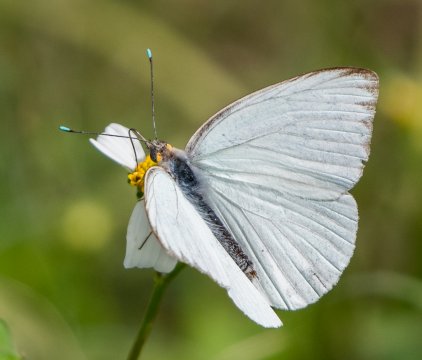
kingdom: Animalia
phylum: Arthropoda
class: Insecta
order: Lepidoptera
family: Pieridae
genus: Ascia
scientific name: Ascia monuste
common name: Great Southern White
